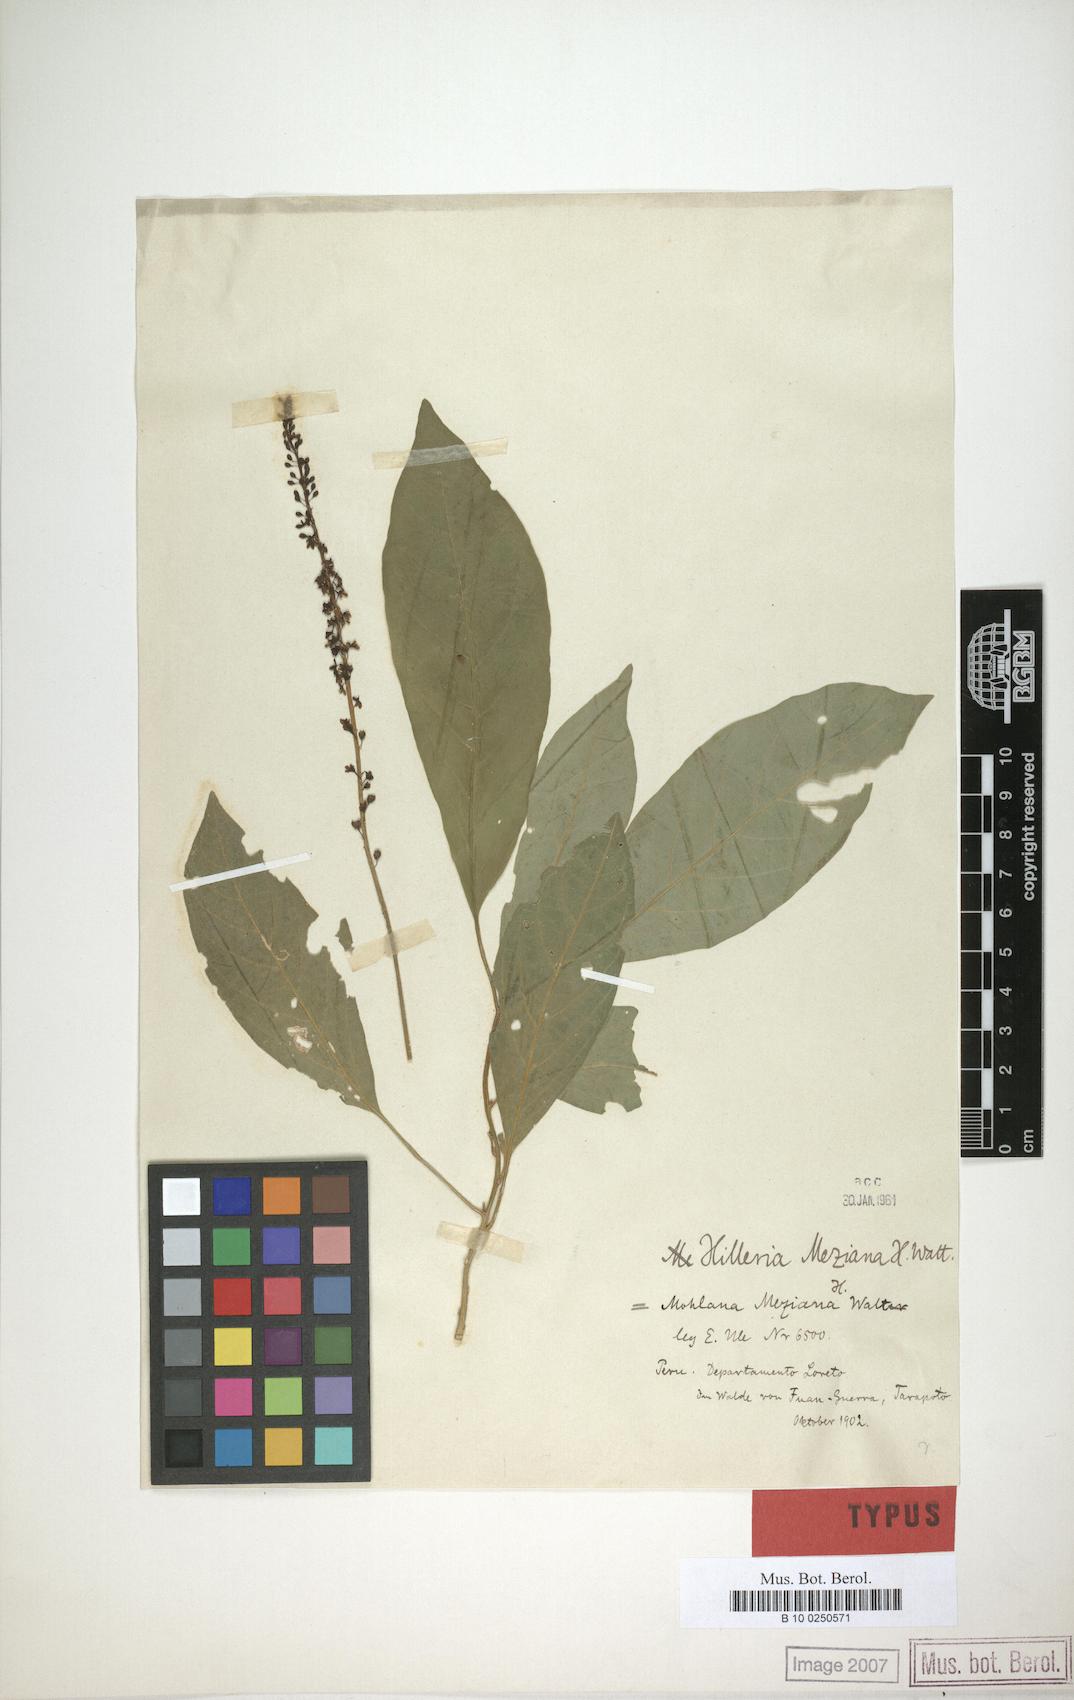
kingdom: Plantae
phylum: Tracheophyta
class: Magnoliopsida
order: Caryophyllales
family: Phytolaccaceae
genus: Hilleria
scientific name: Hilleria secunda
